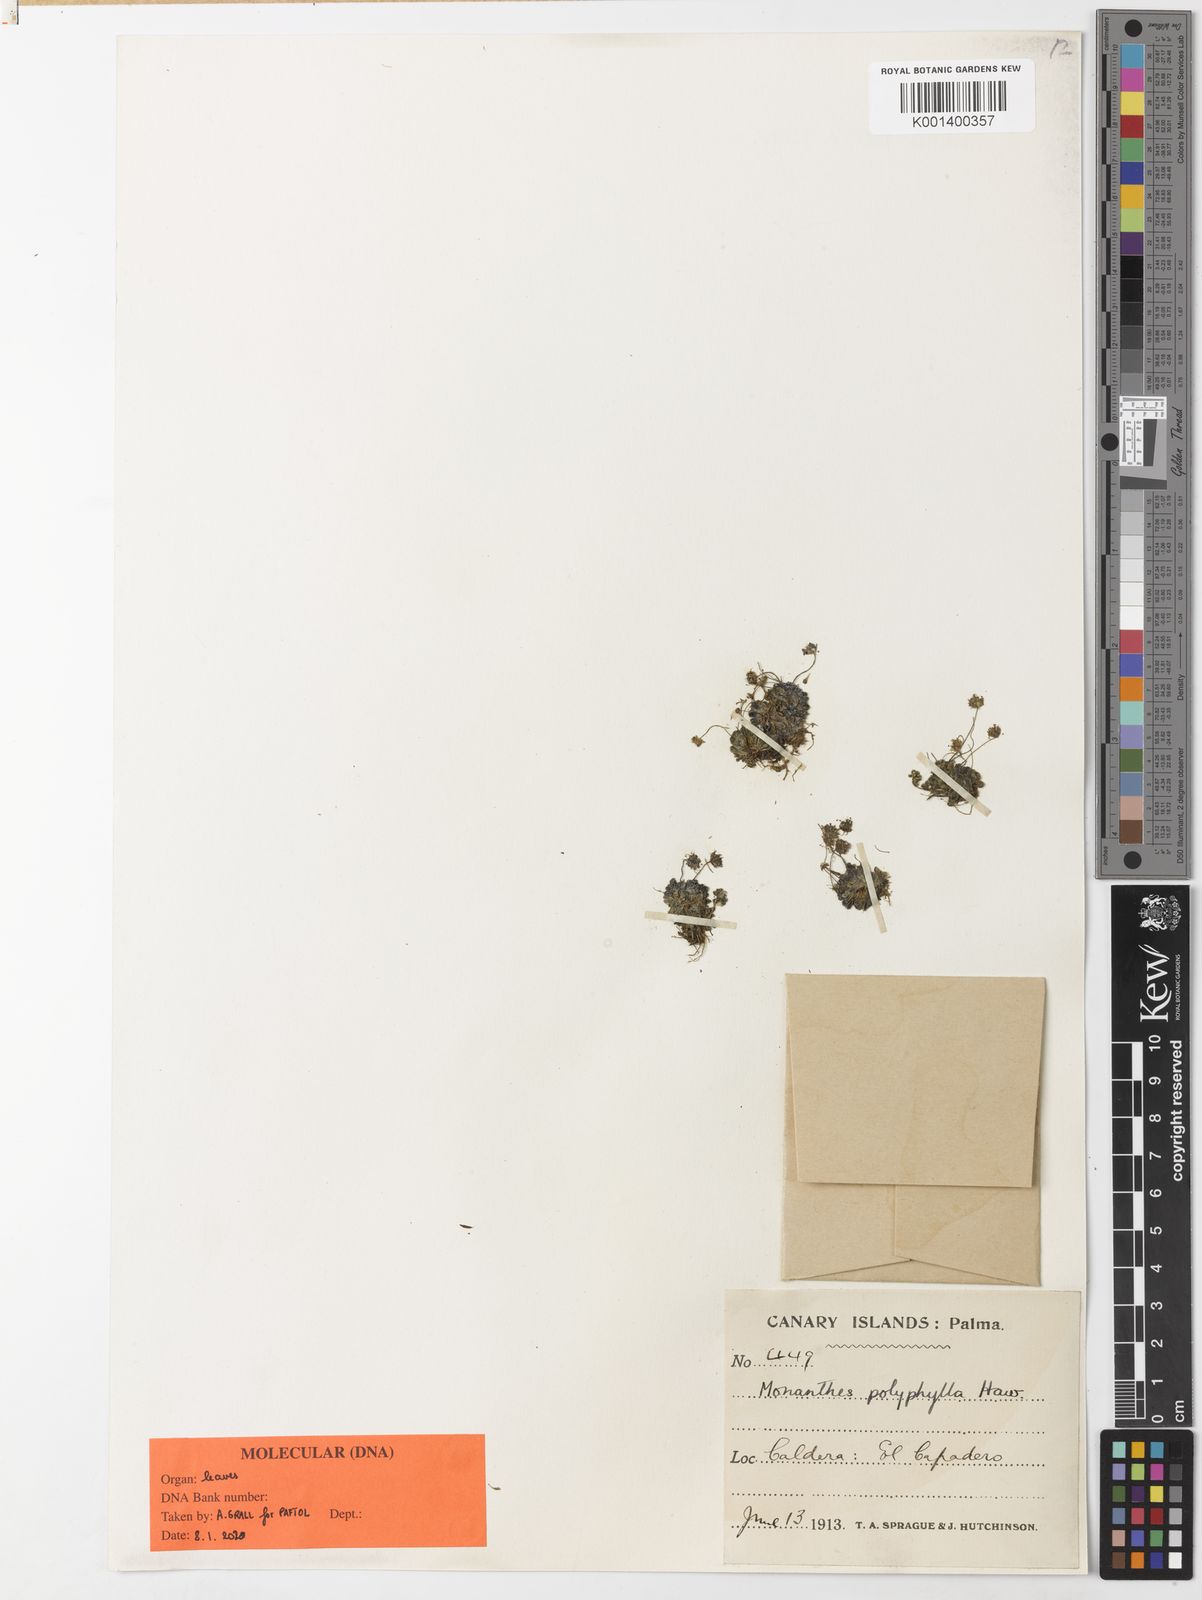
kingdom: Plantae
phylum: Tracheophyta
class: Magnoliopsida
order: Saxifragales
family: Crassulaceae
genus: Monanthes
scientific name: Monanthes polyphylla
